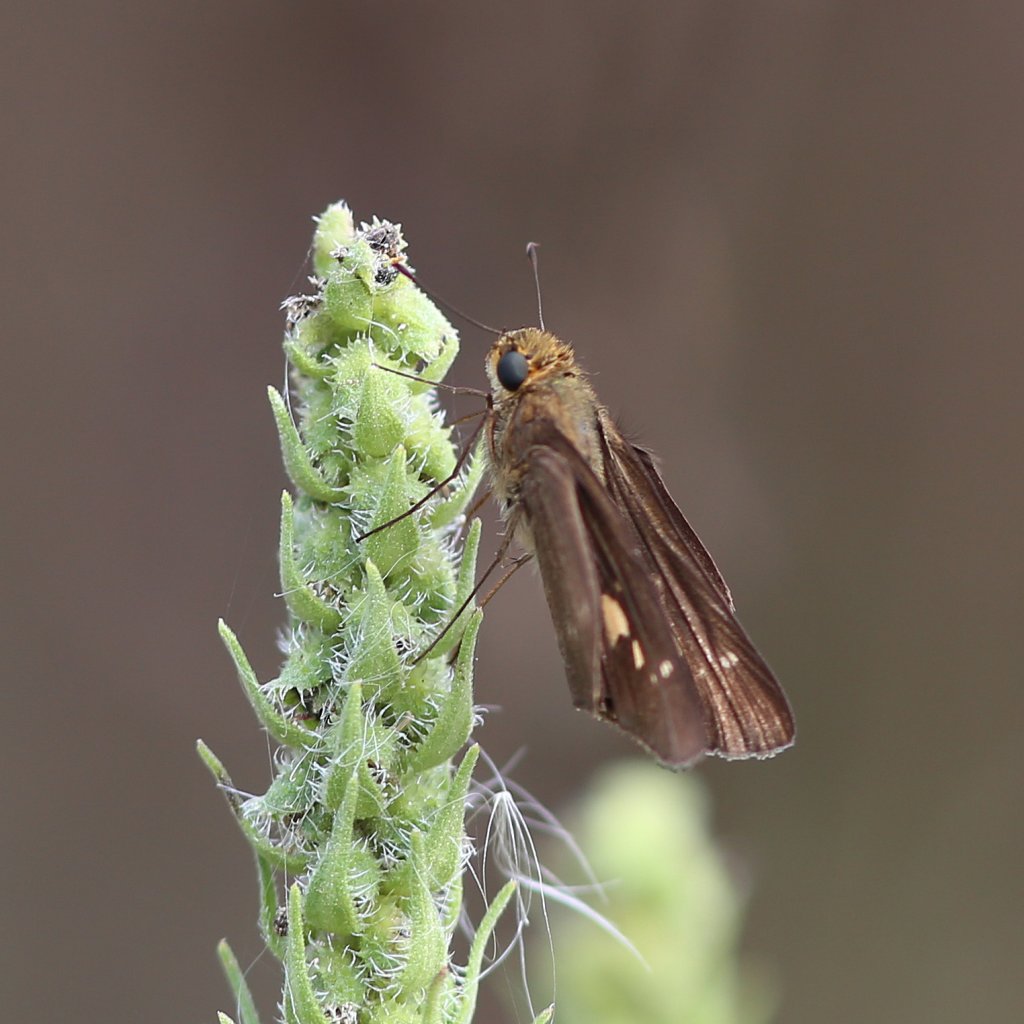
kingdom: Animalia
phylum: Arthropoda
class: Insecta
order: Lepidoptera
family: Hesperiidae
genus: Panoquina
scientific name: Panoquina ocola
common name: Ocola Skipper
